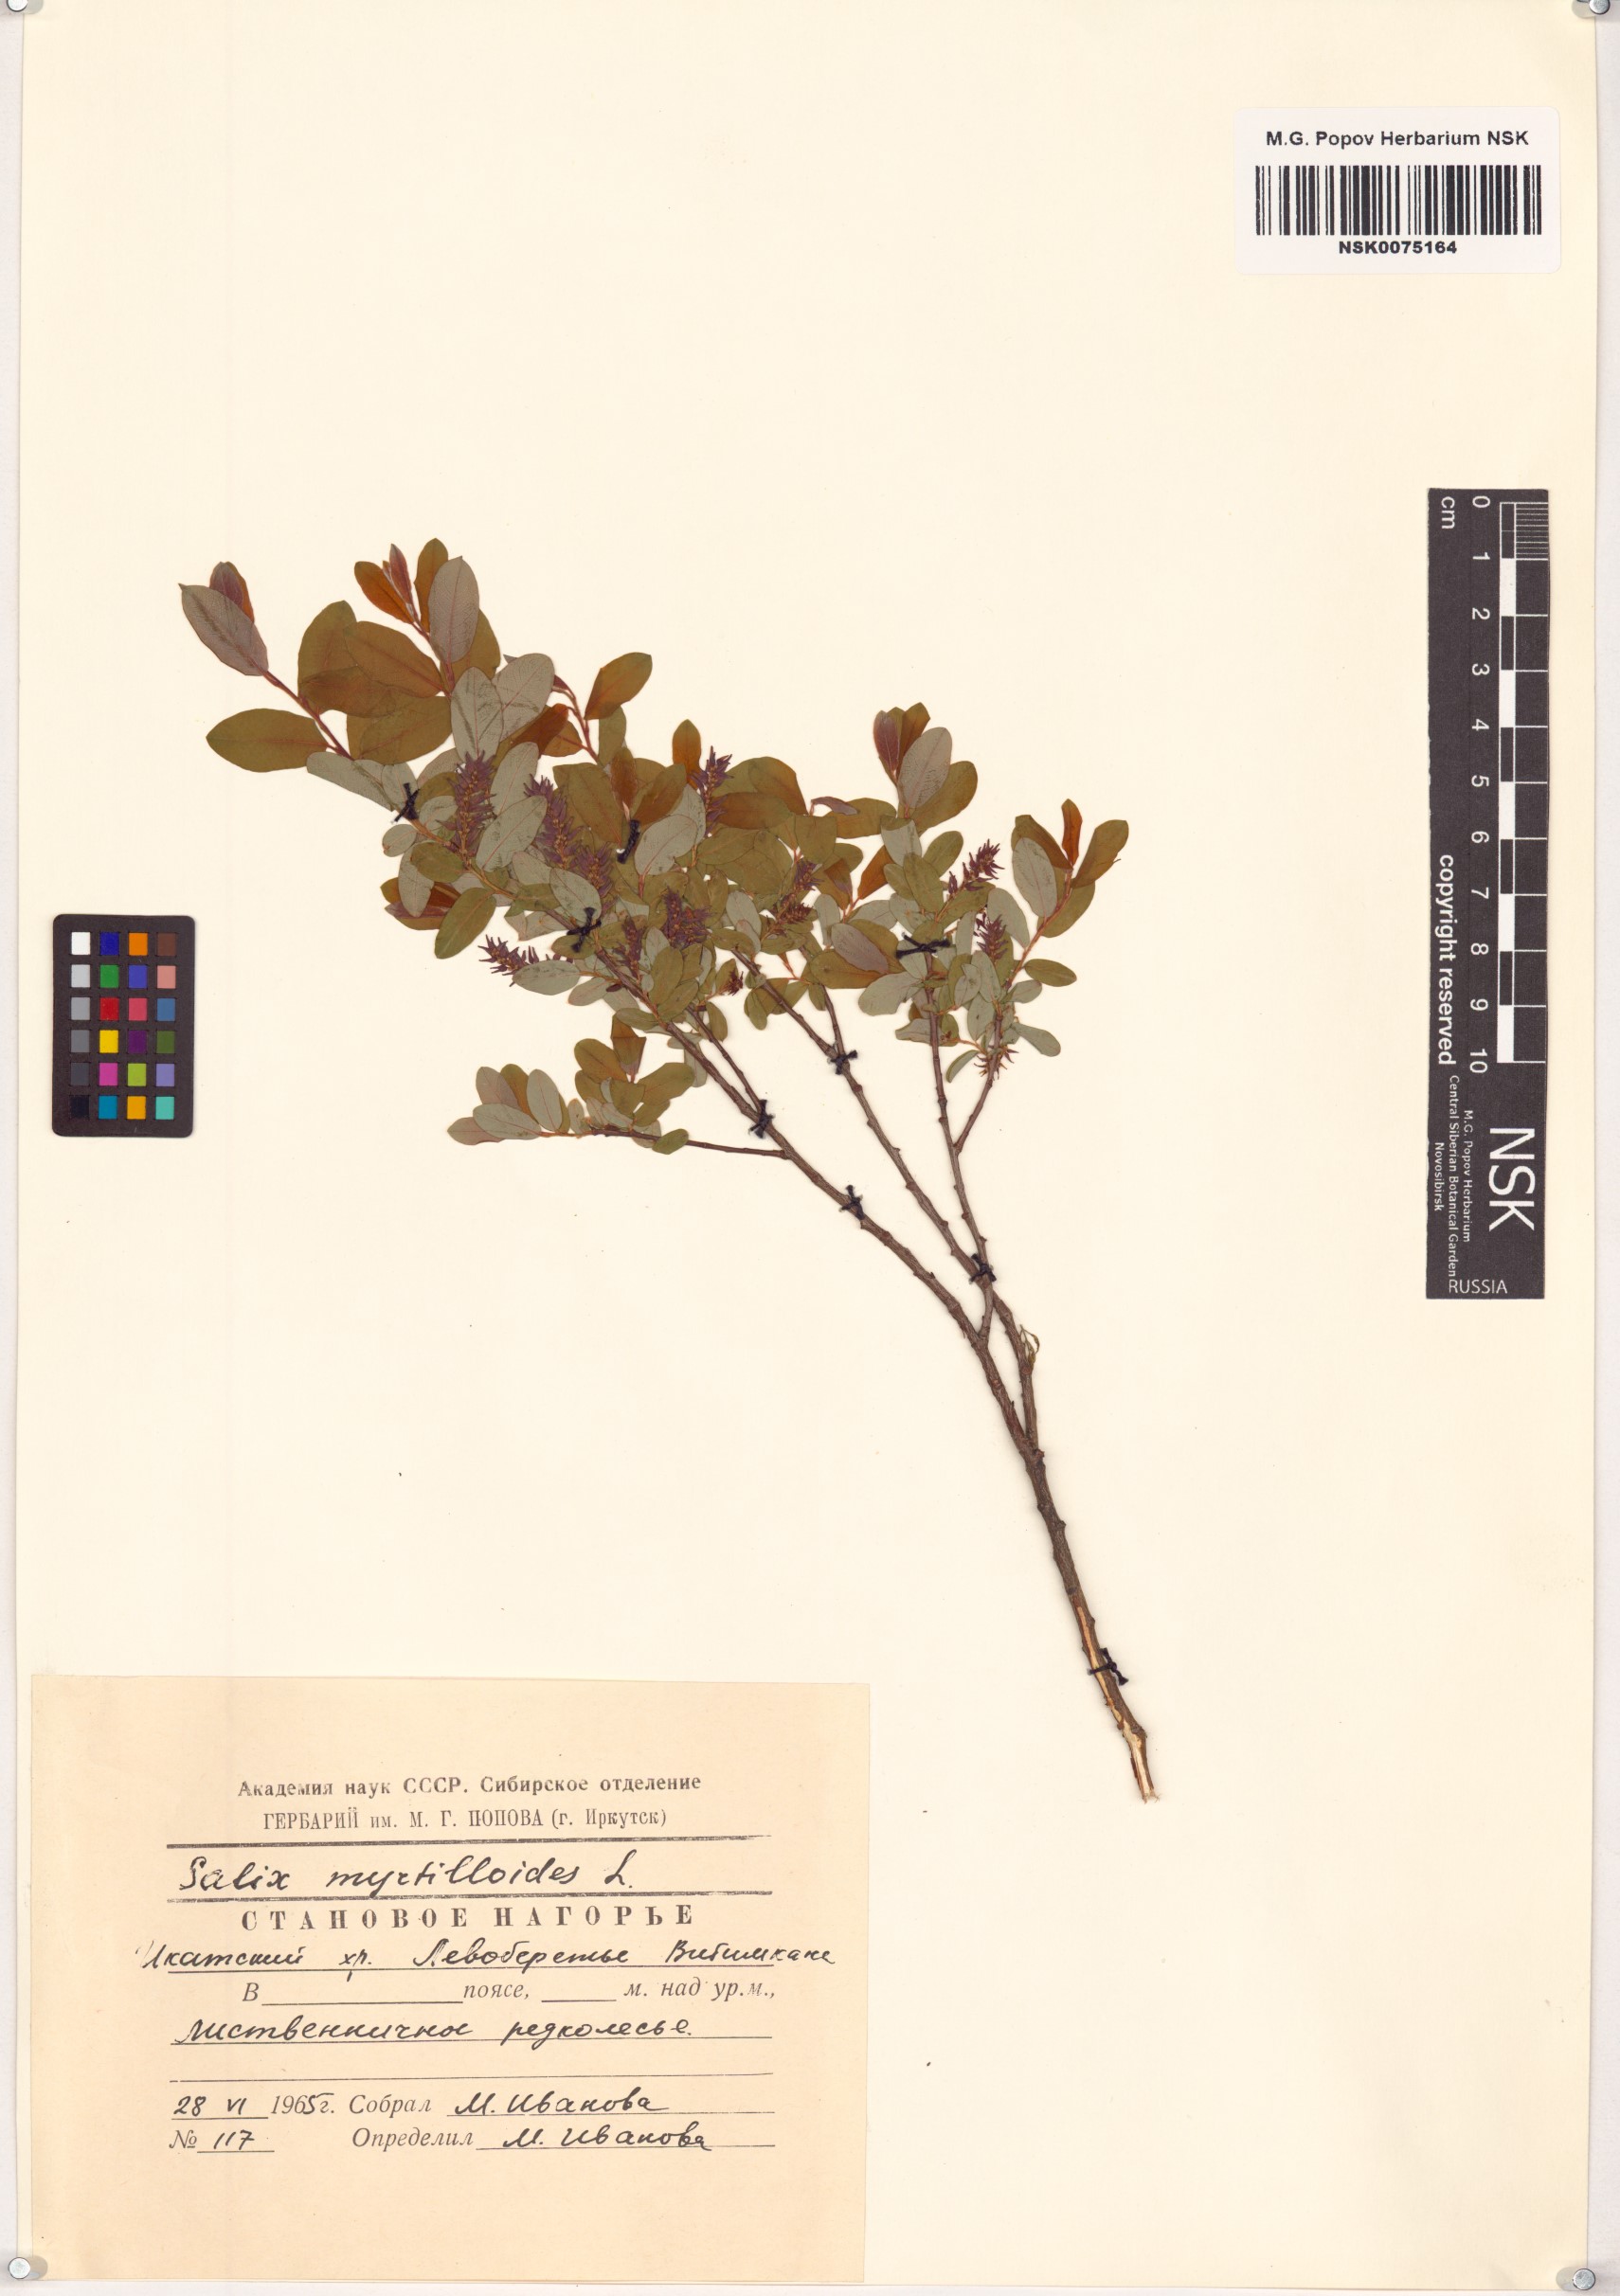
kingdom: Plantae
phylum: Tracheophyta
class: Magnoliopsida
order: Malpighiales
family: Salicaceae
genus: Salix
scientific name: Salix myrtilloides
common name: Myrtle-leaved willow
